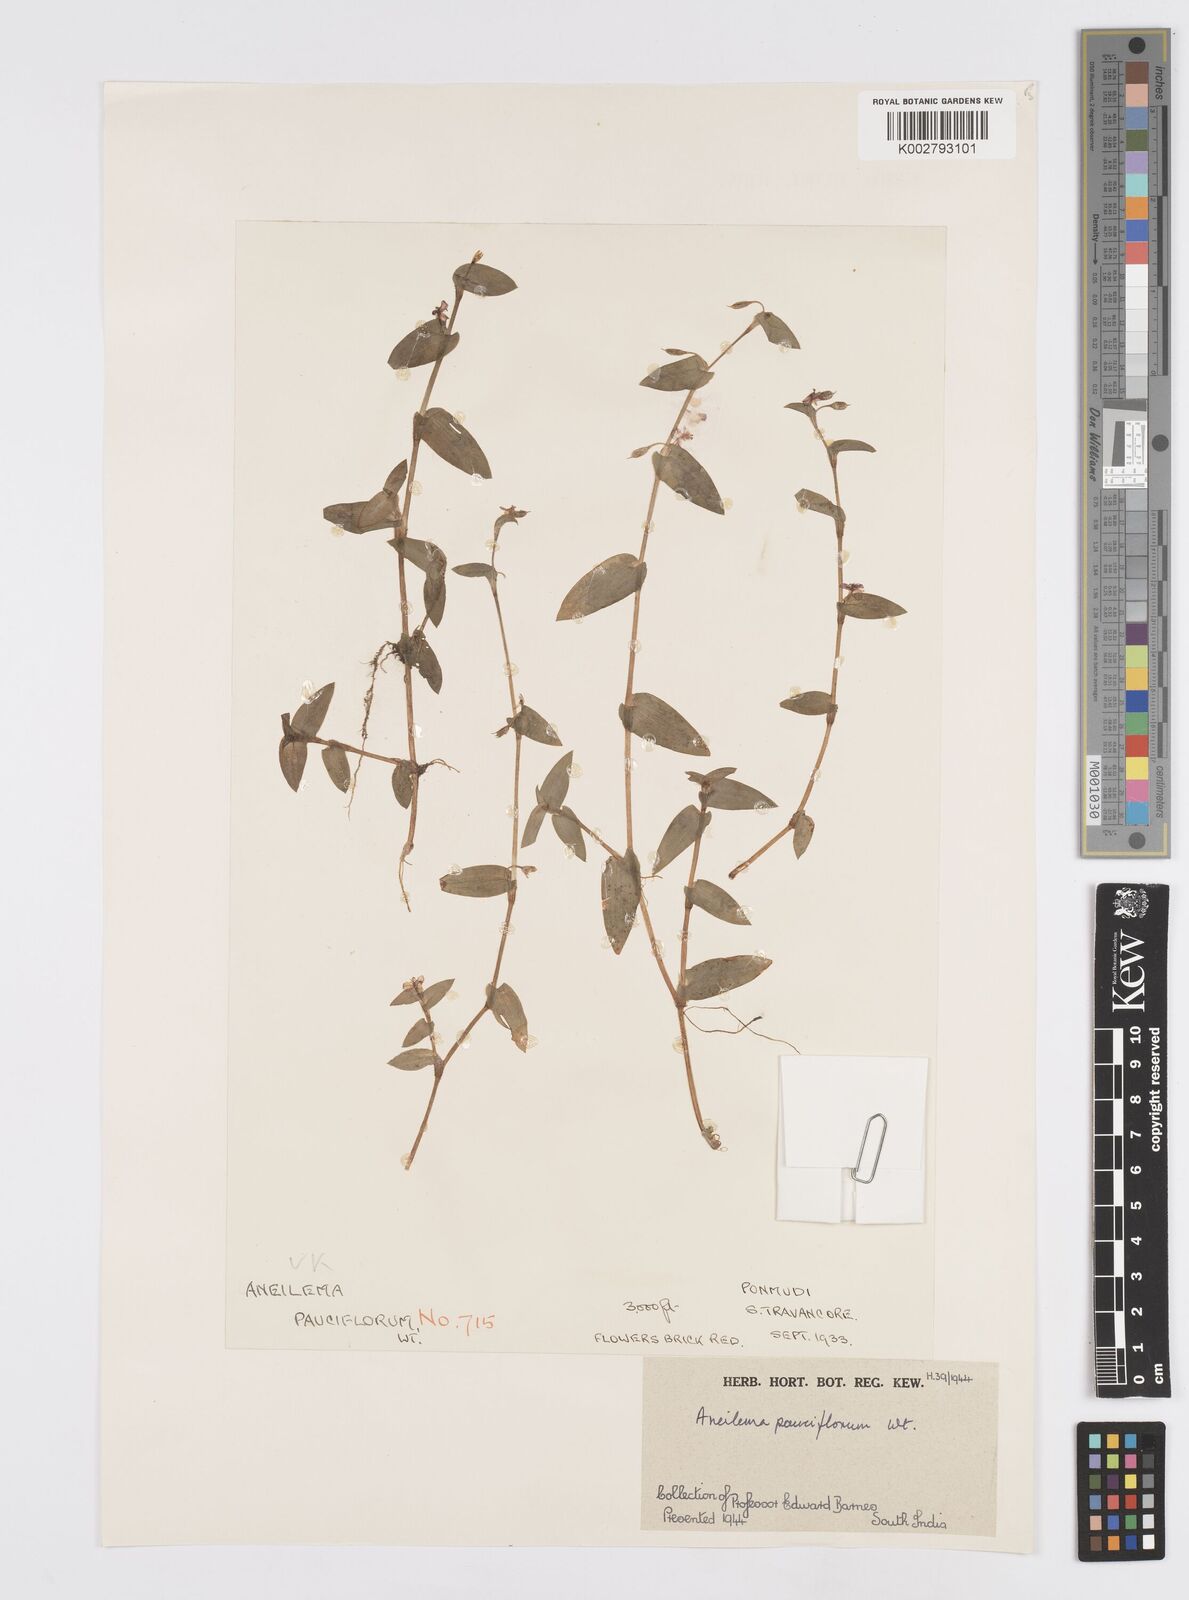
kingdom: Plantae
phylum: Tracheophyta
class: Liliopsida
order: Commelinales
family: Commelinaceae
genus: Murdannia
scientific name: Murdannia pauciflora
